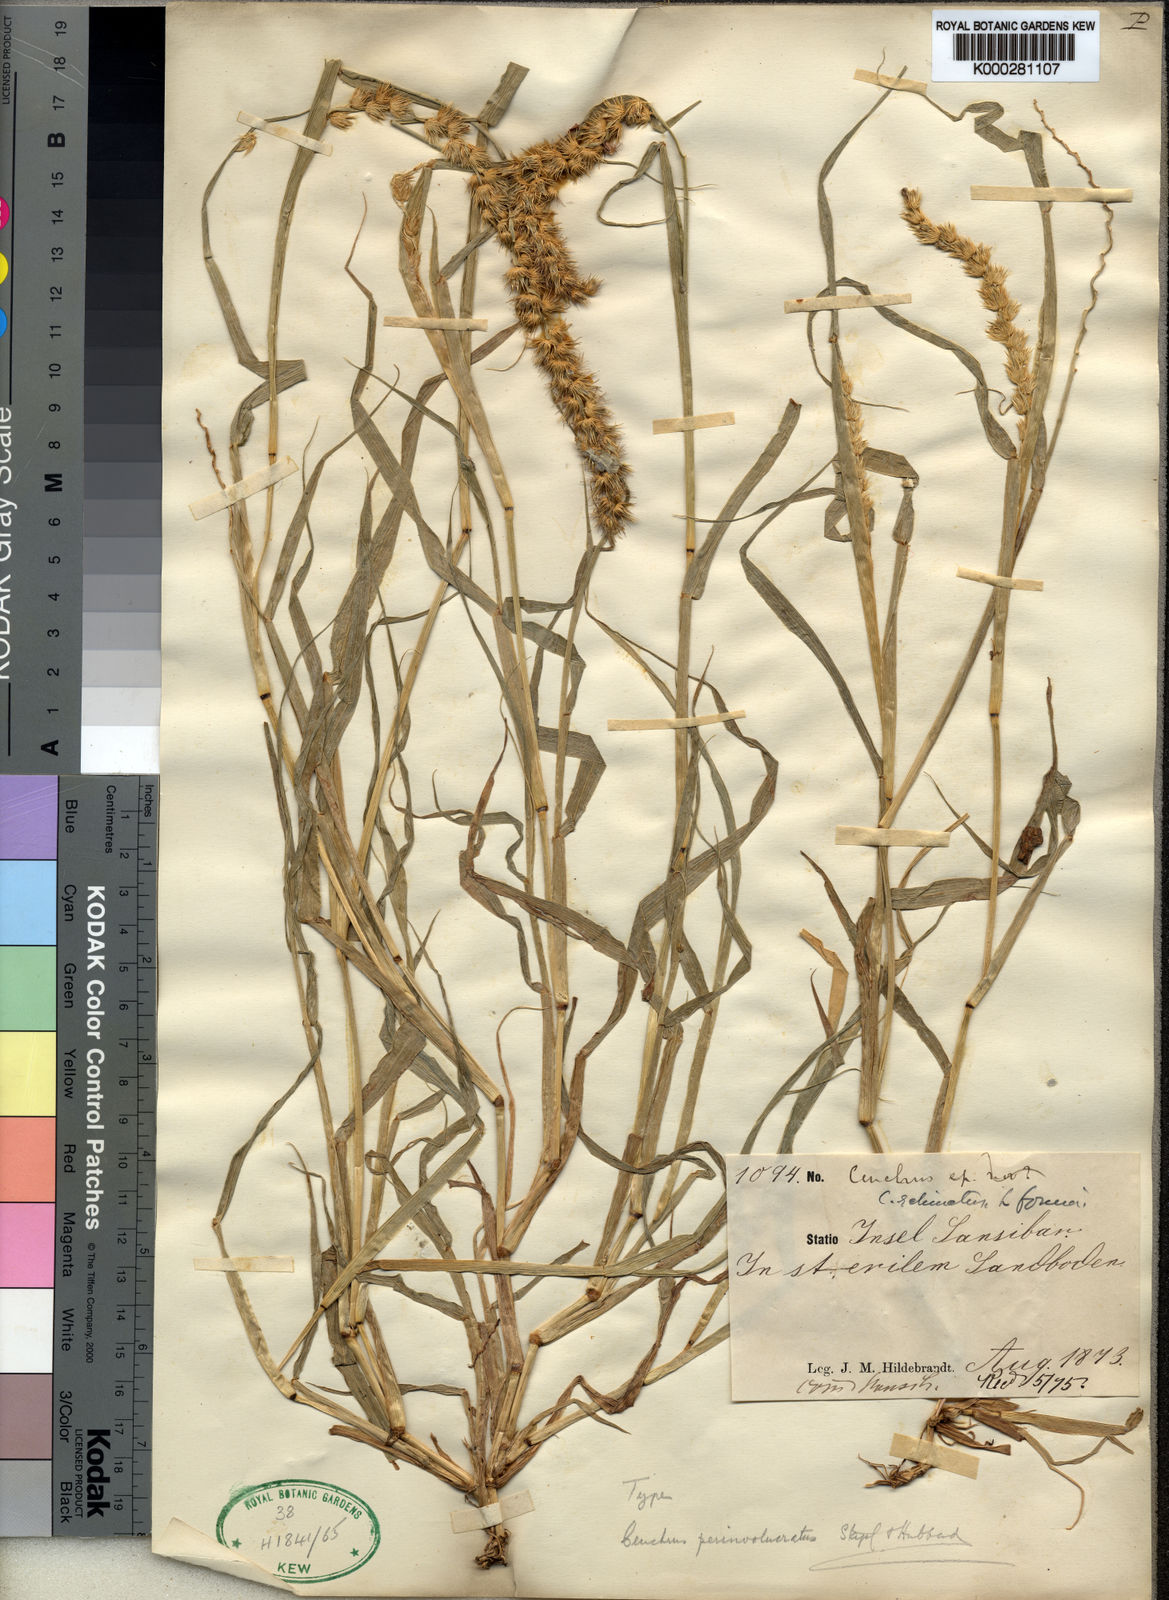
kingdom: Plantae
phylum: Tracheophyta
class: Liliopsida
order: Poales
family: Poaceae
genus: Cenchrus
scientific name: Cenchrus biflorus
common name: Indian sandbur
